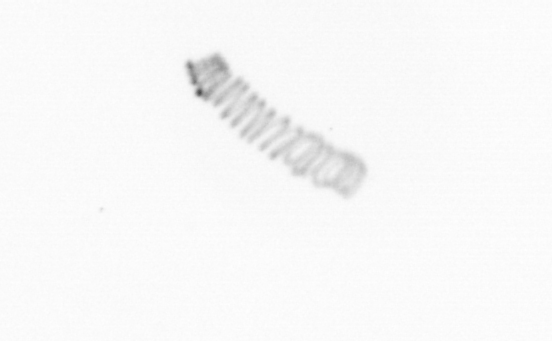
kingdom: Chromista
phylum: Ochrophyta
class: Bacillariophyceae
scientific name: Bacillariophyceae
